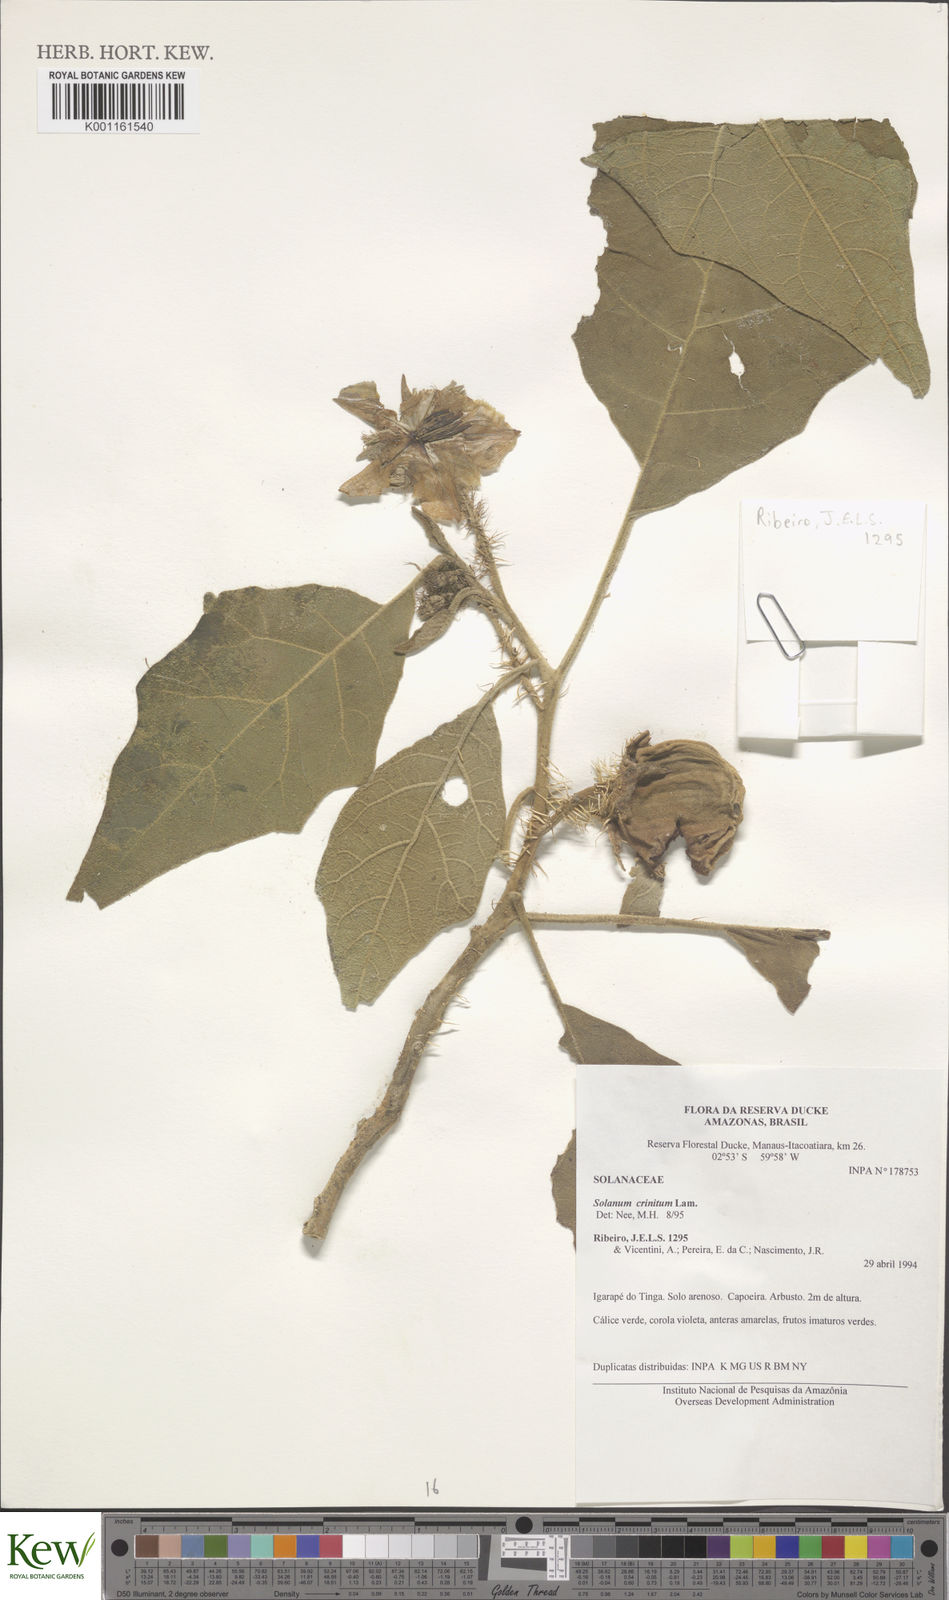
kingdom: Plantae
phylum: Tracheophyta
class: Magnoliopsida
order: Solanales
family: Solanaceae
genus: Solanum
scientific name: Solanum crinitum
